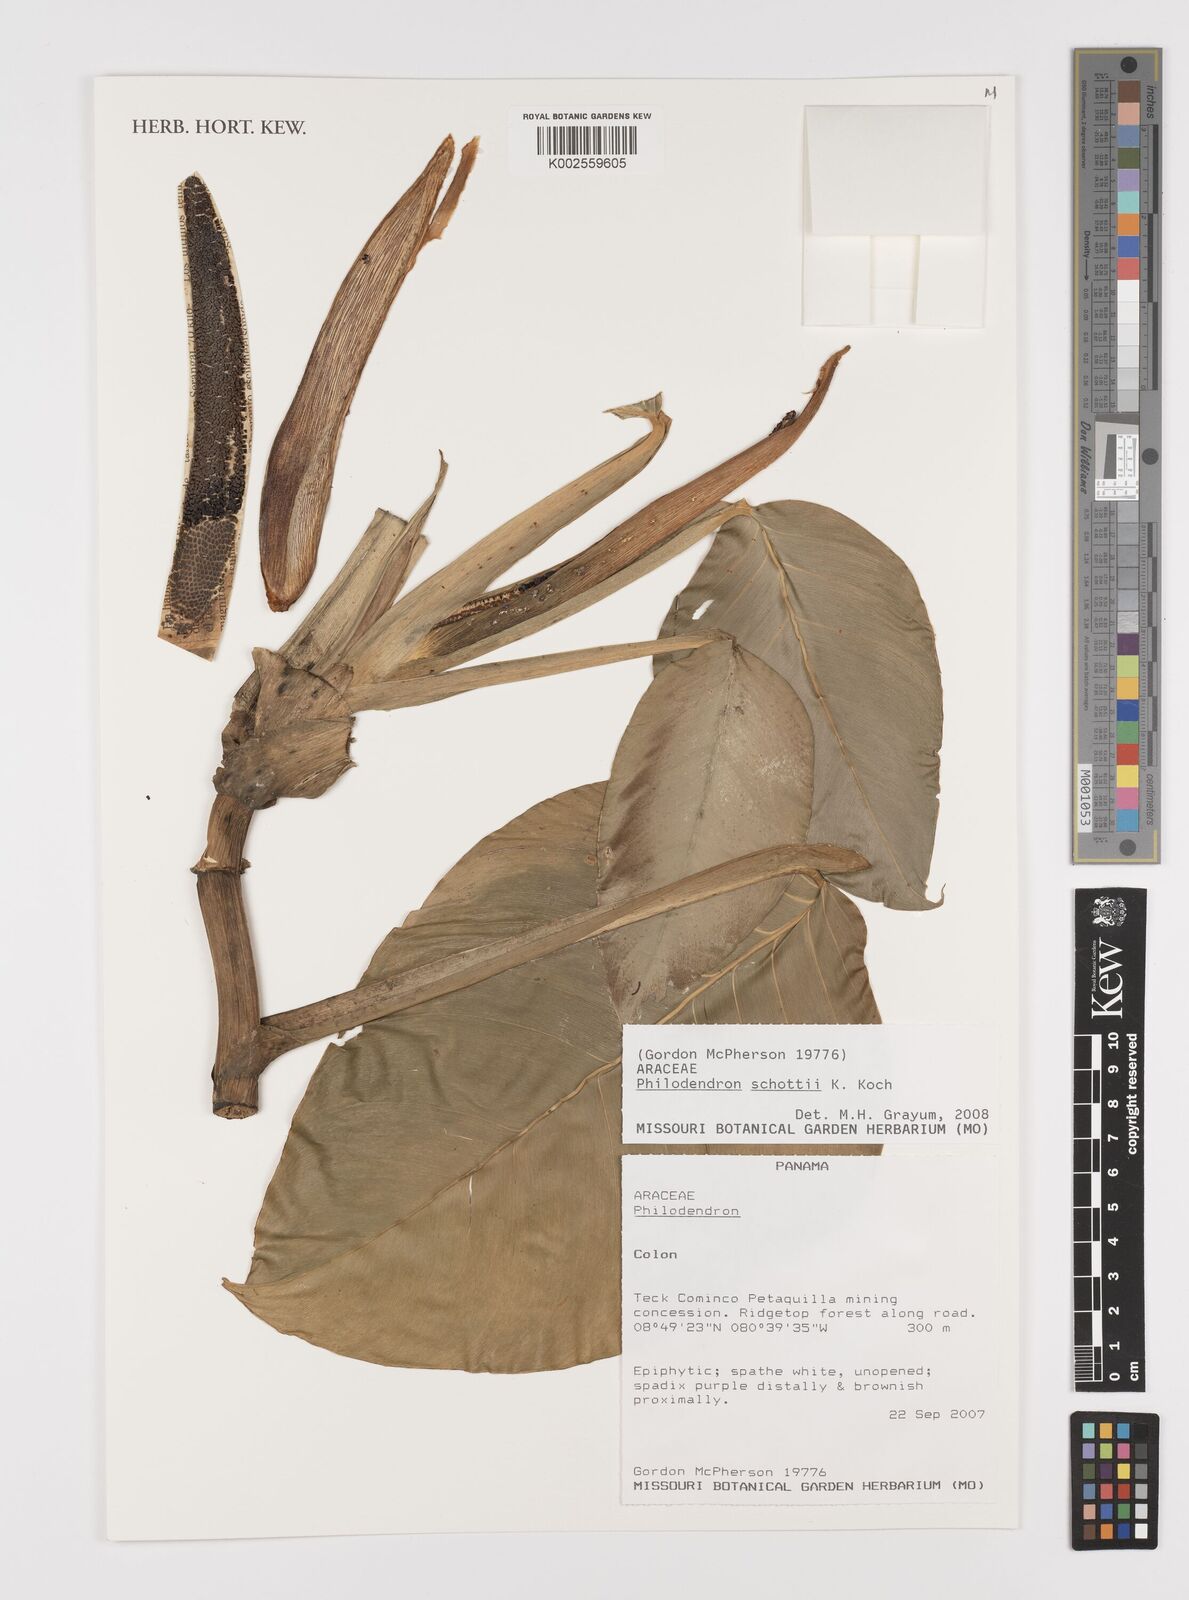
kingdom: Plantae
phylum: Tracheophyta
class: Liliopsida
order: Alismatales
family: Araceae
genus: Philodendron
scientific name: Philodendron schottii
